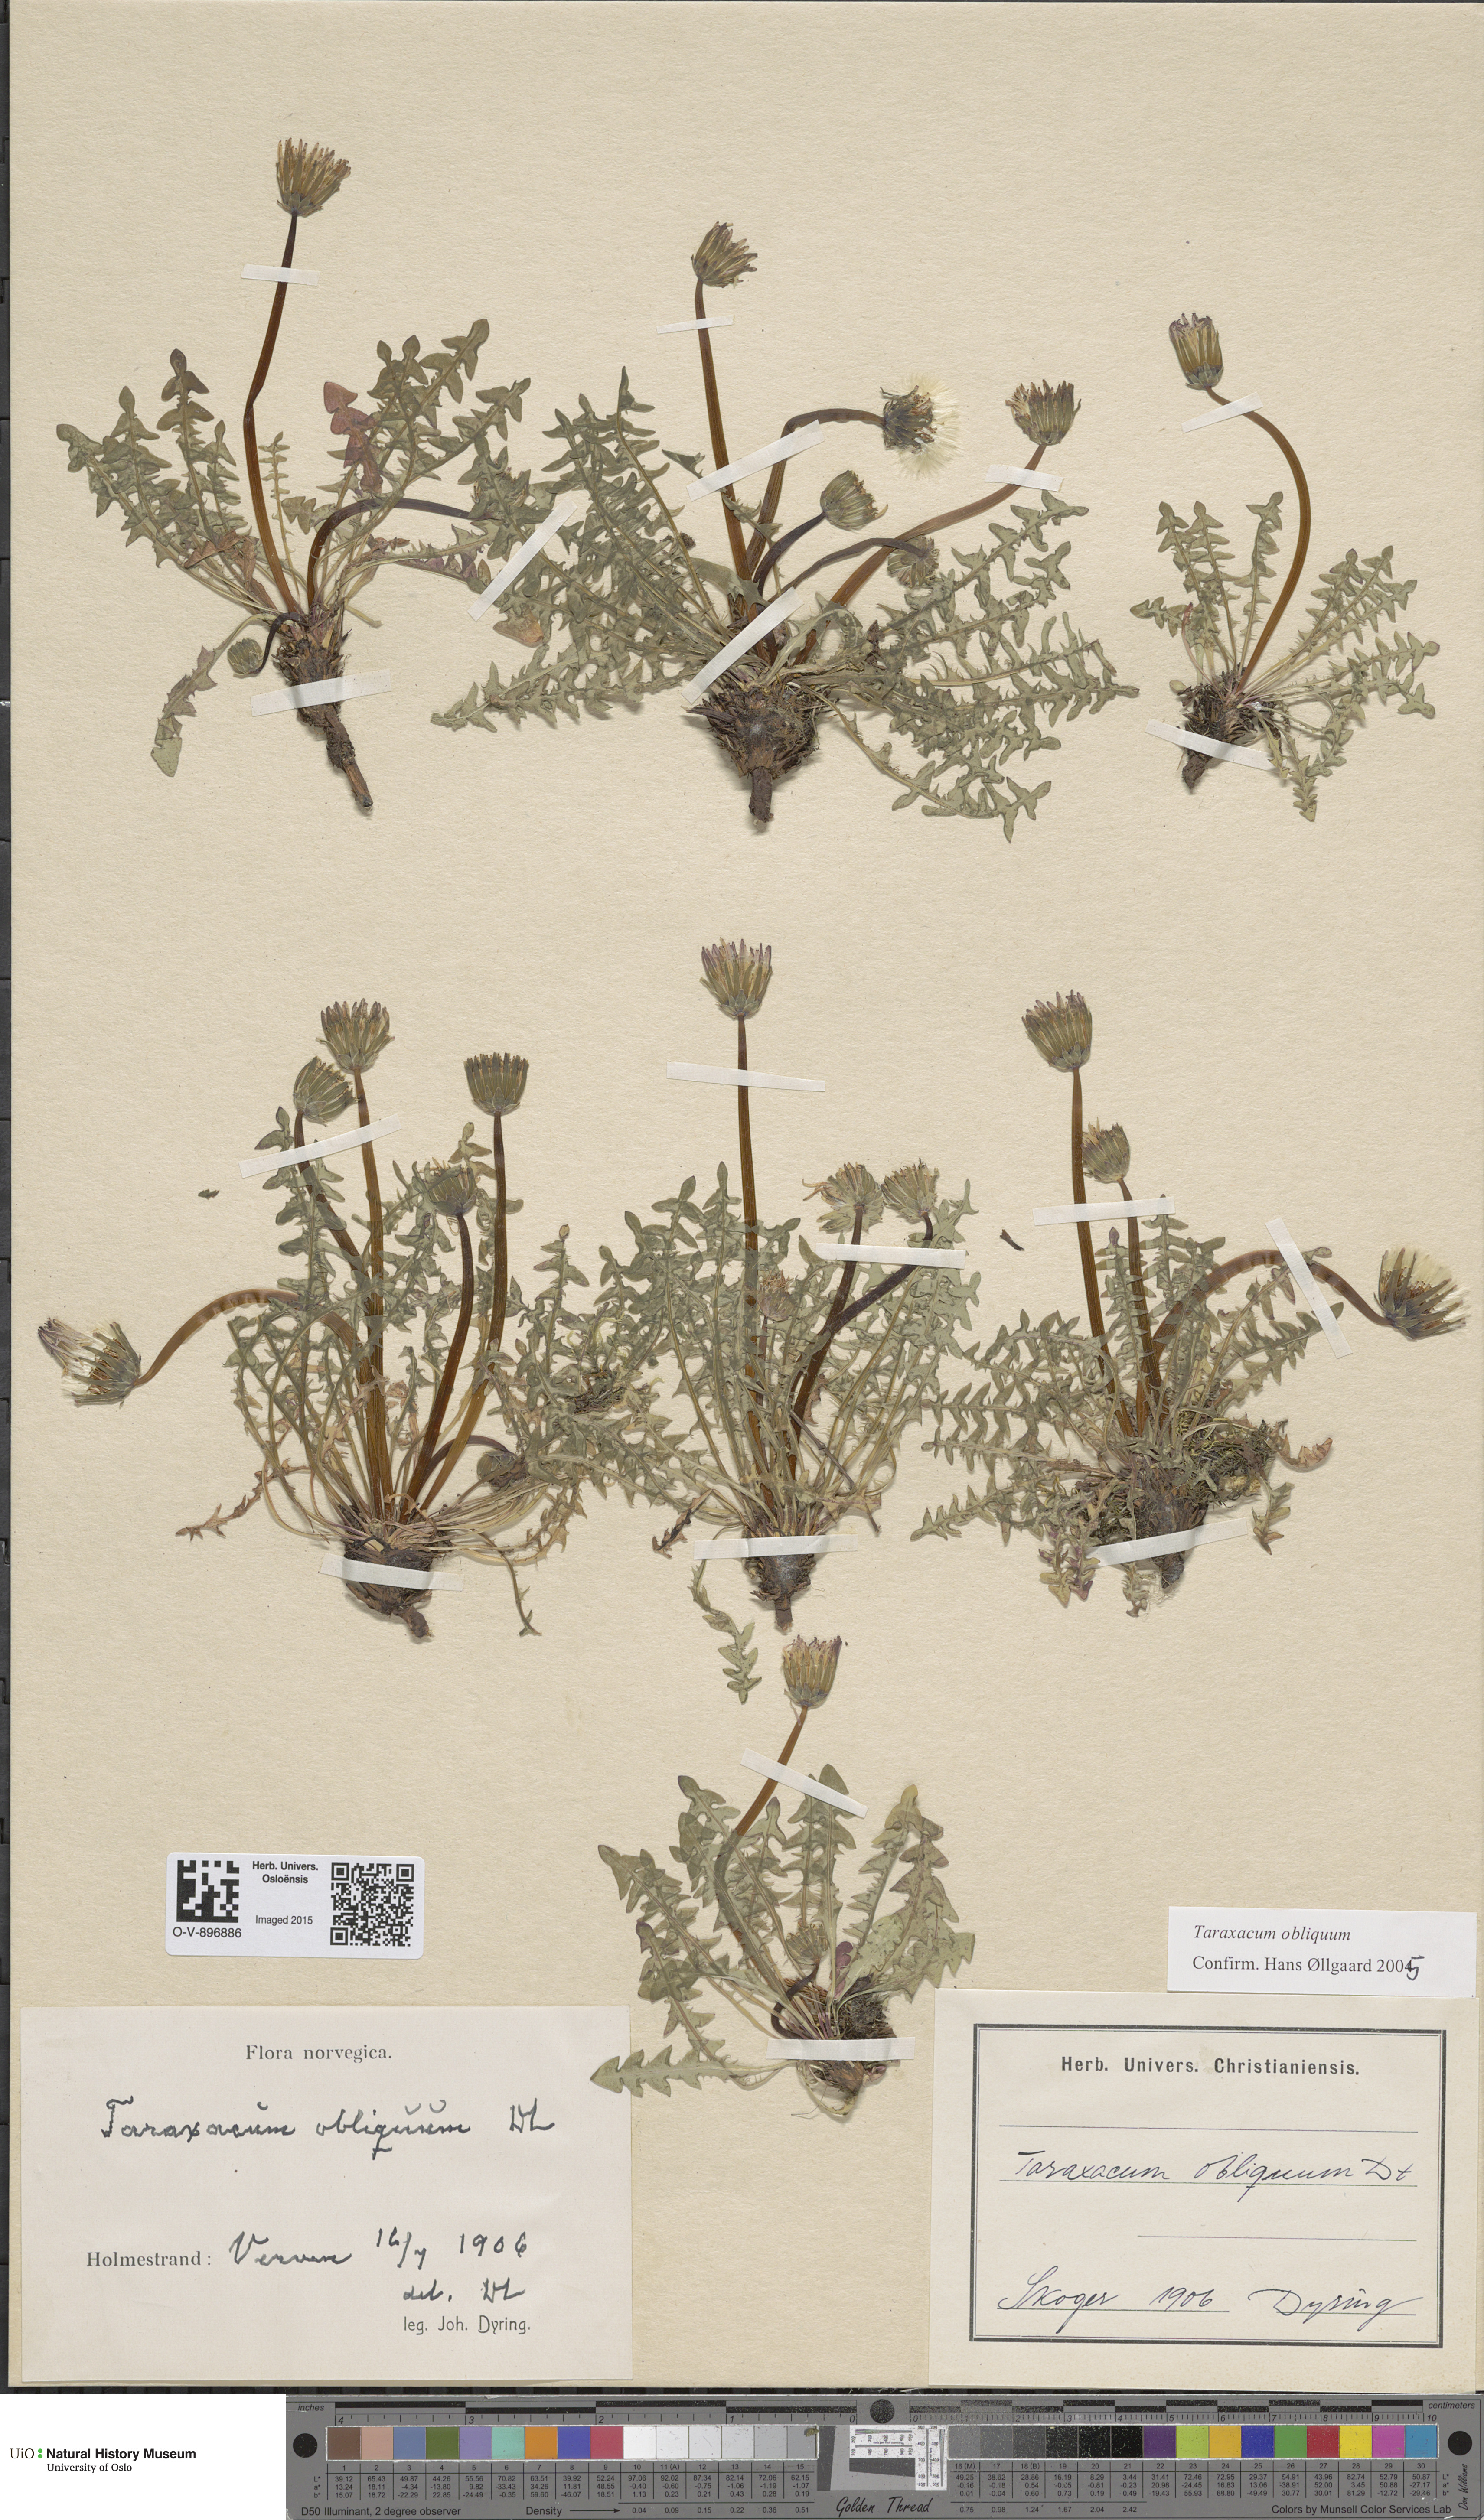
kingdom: Plantae
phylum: Tracheophyta
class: Magnoliopsida
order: Asterales
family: Asteraceae
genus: Taraxacum
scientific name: Taraxacum obliquum
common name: Many-lobed dandelion
